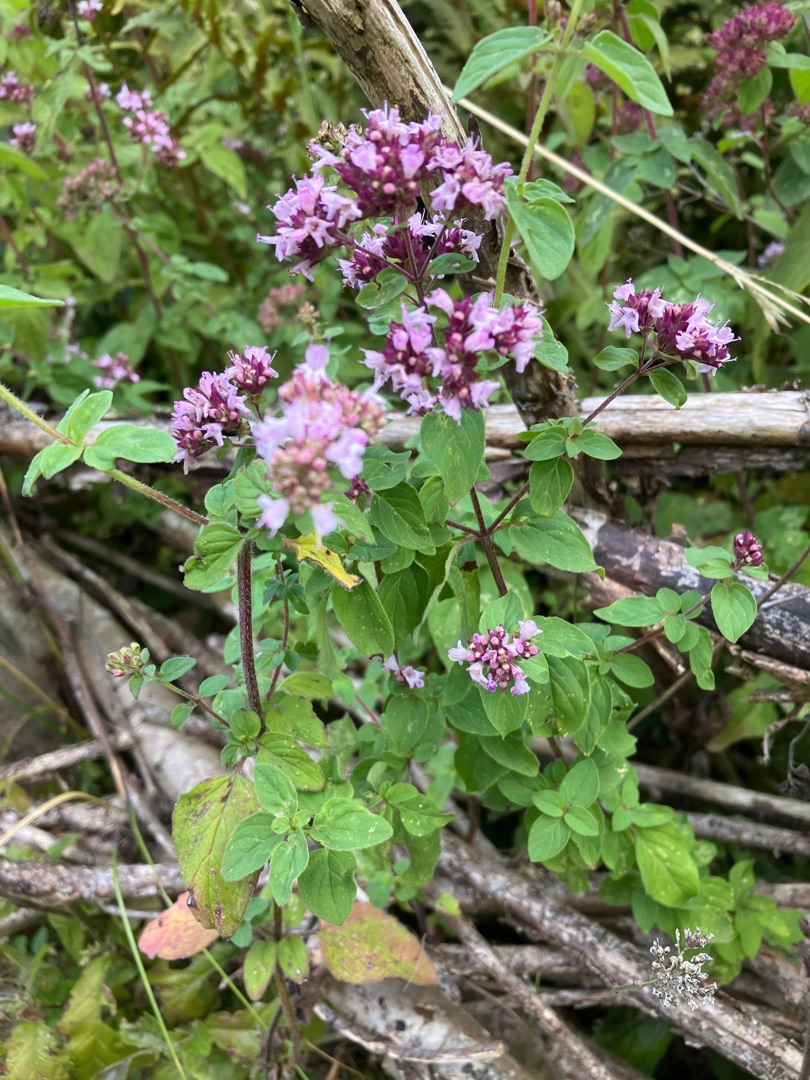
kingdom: Plantae
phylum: Tracheophyta
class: Magnoliopsida
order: Lamiales
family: Lamiaceae
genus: Origanum
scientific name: Origanum vulgare
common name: Merian
